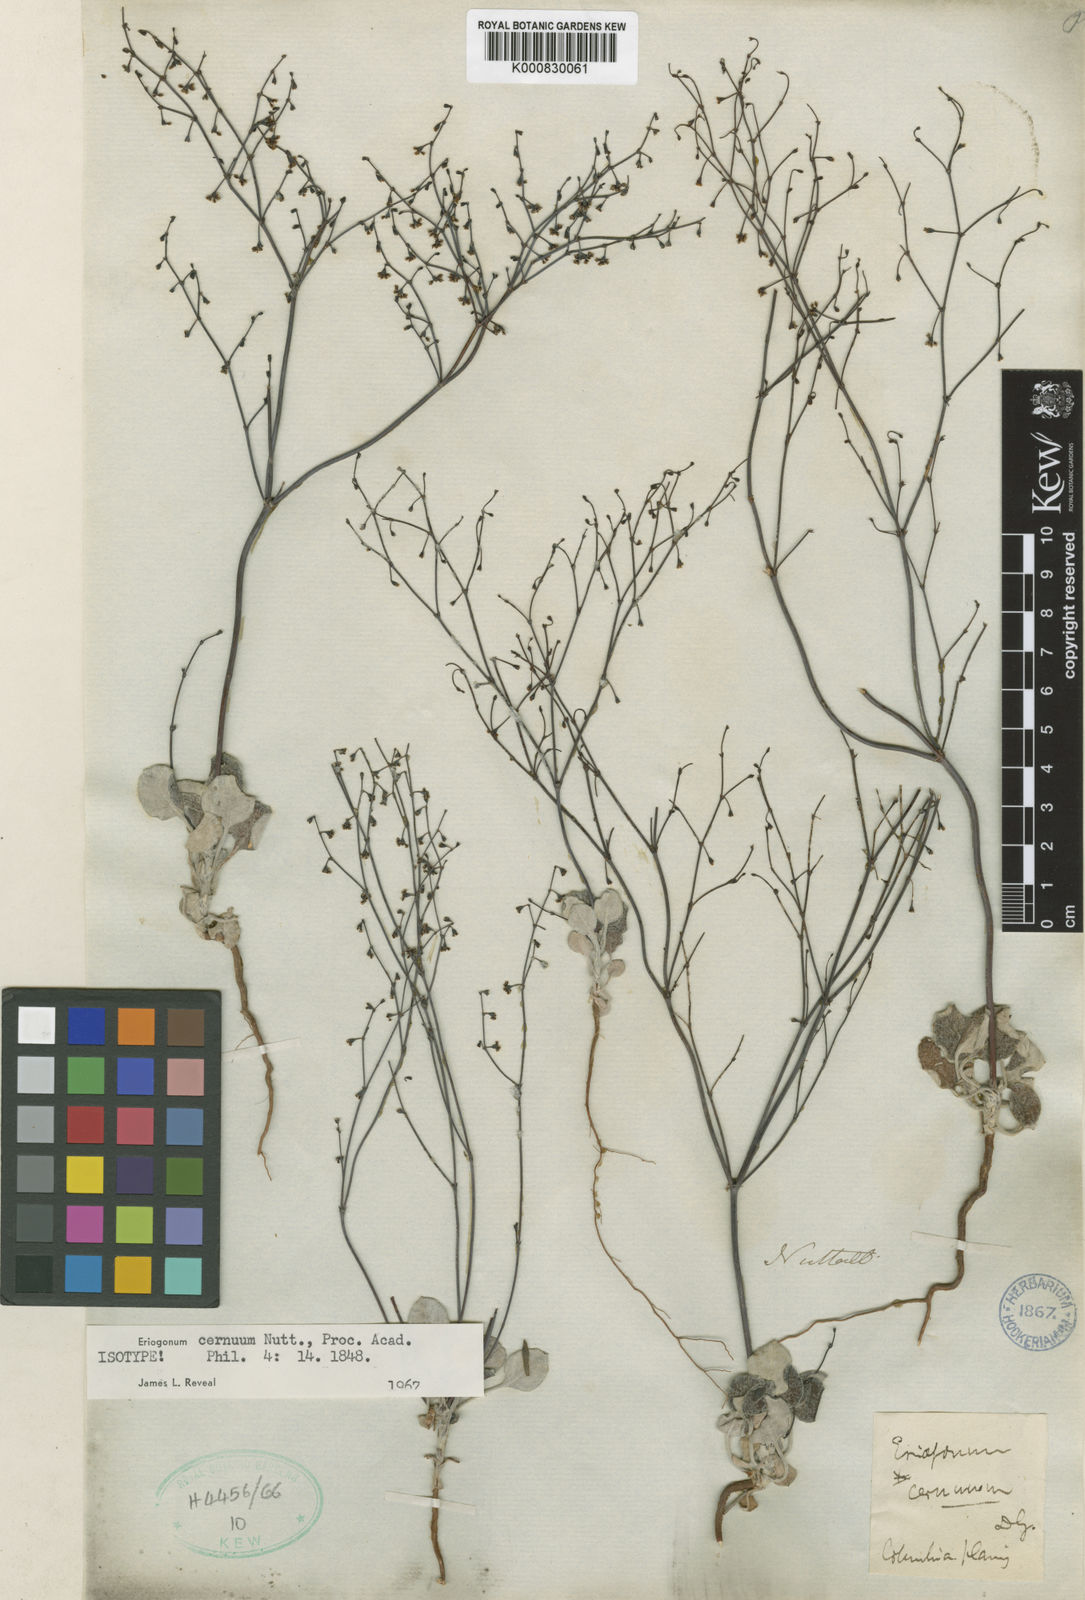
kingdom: Plantae
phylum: Tracheophyta
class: Magnoliopsida
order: Caryophyllales
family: Polygonaceae
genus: Eriogonum
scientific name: Eriogonum cernuum
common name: Nodding wild buckwheat
